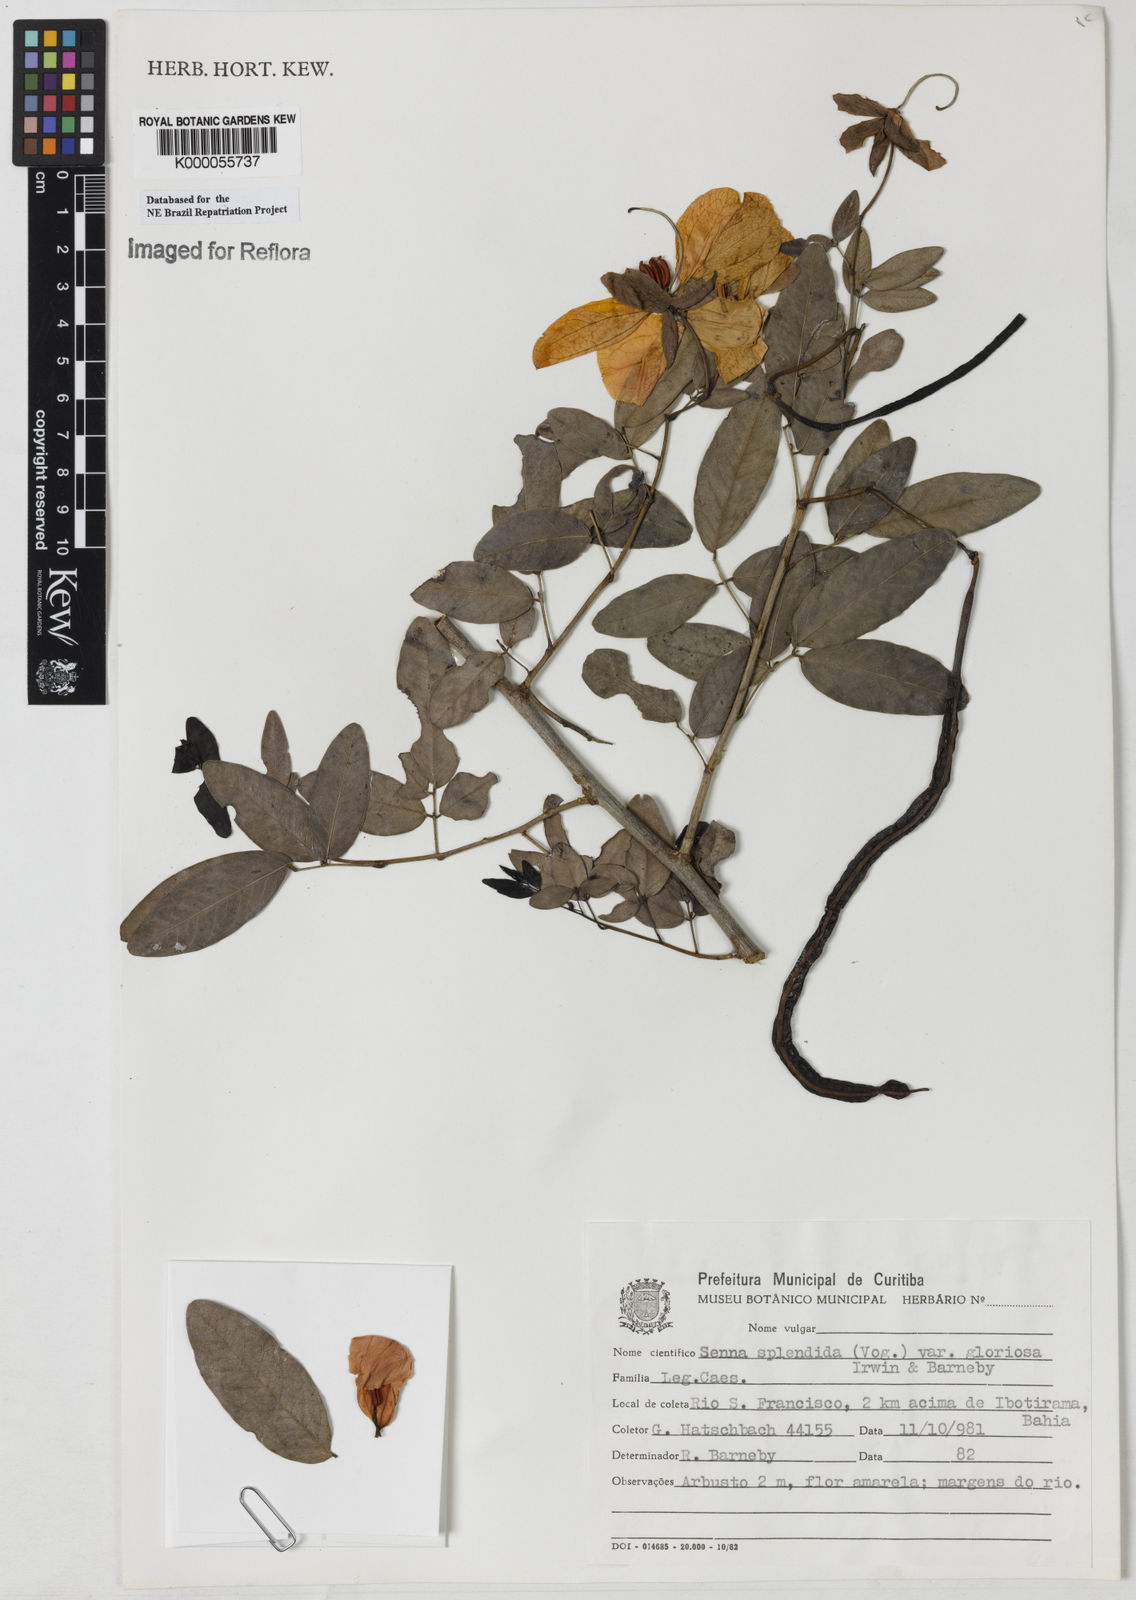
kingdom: Plantae
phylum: Tracheophyta
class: Magnoliopsida
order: Fabales
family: Fabaceae
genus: Senna
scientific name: Senna splendida
